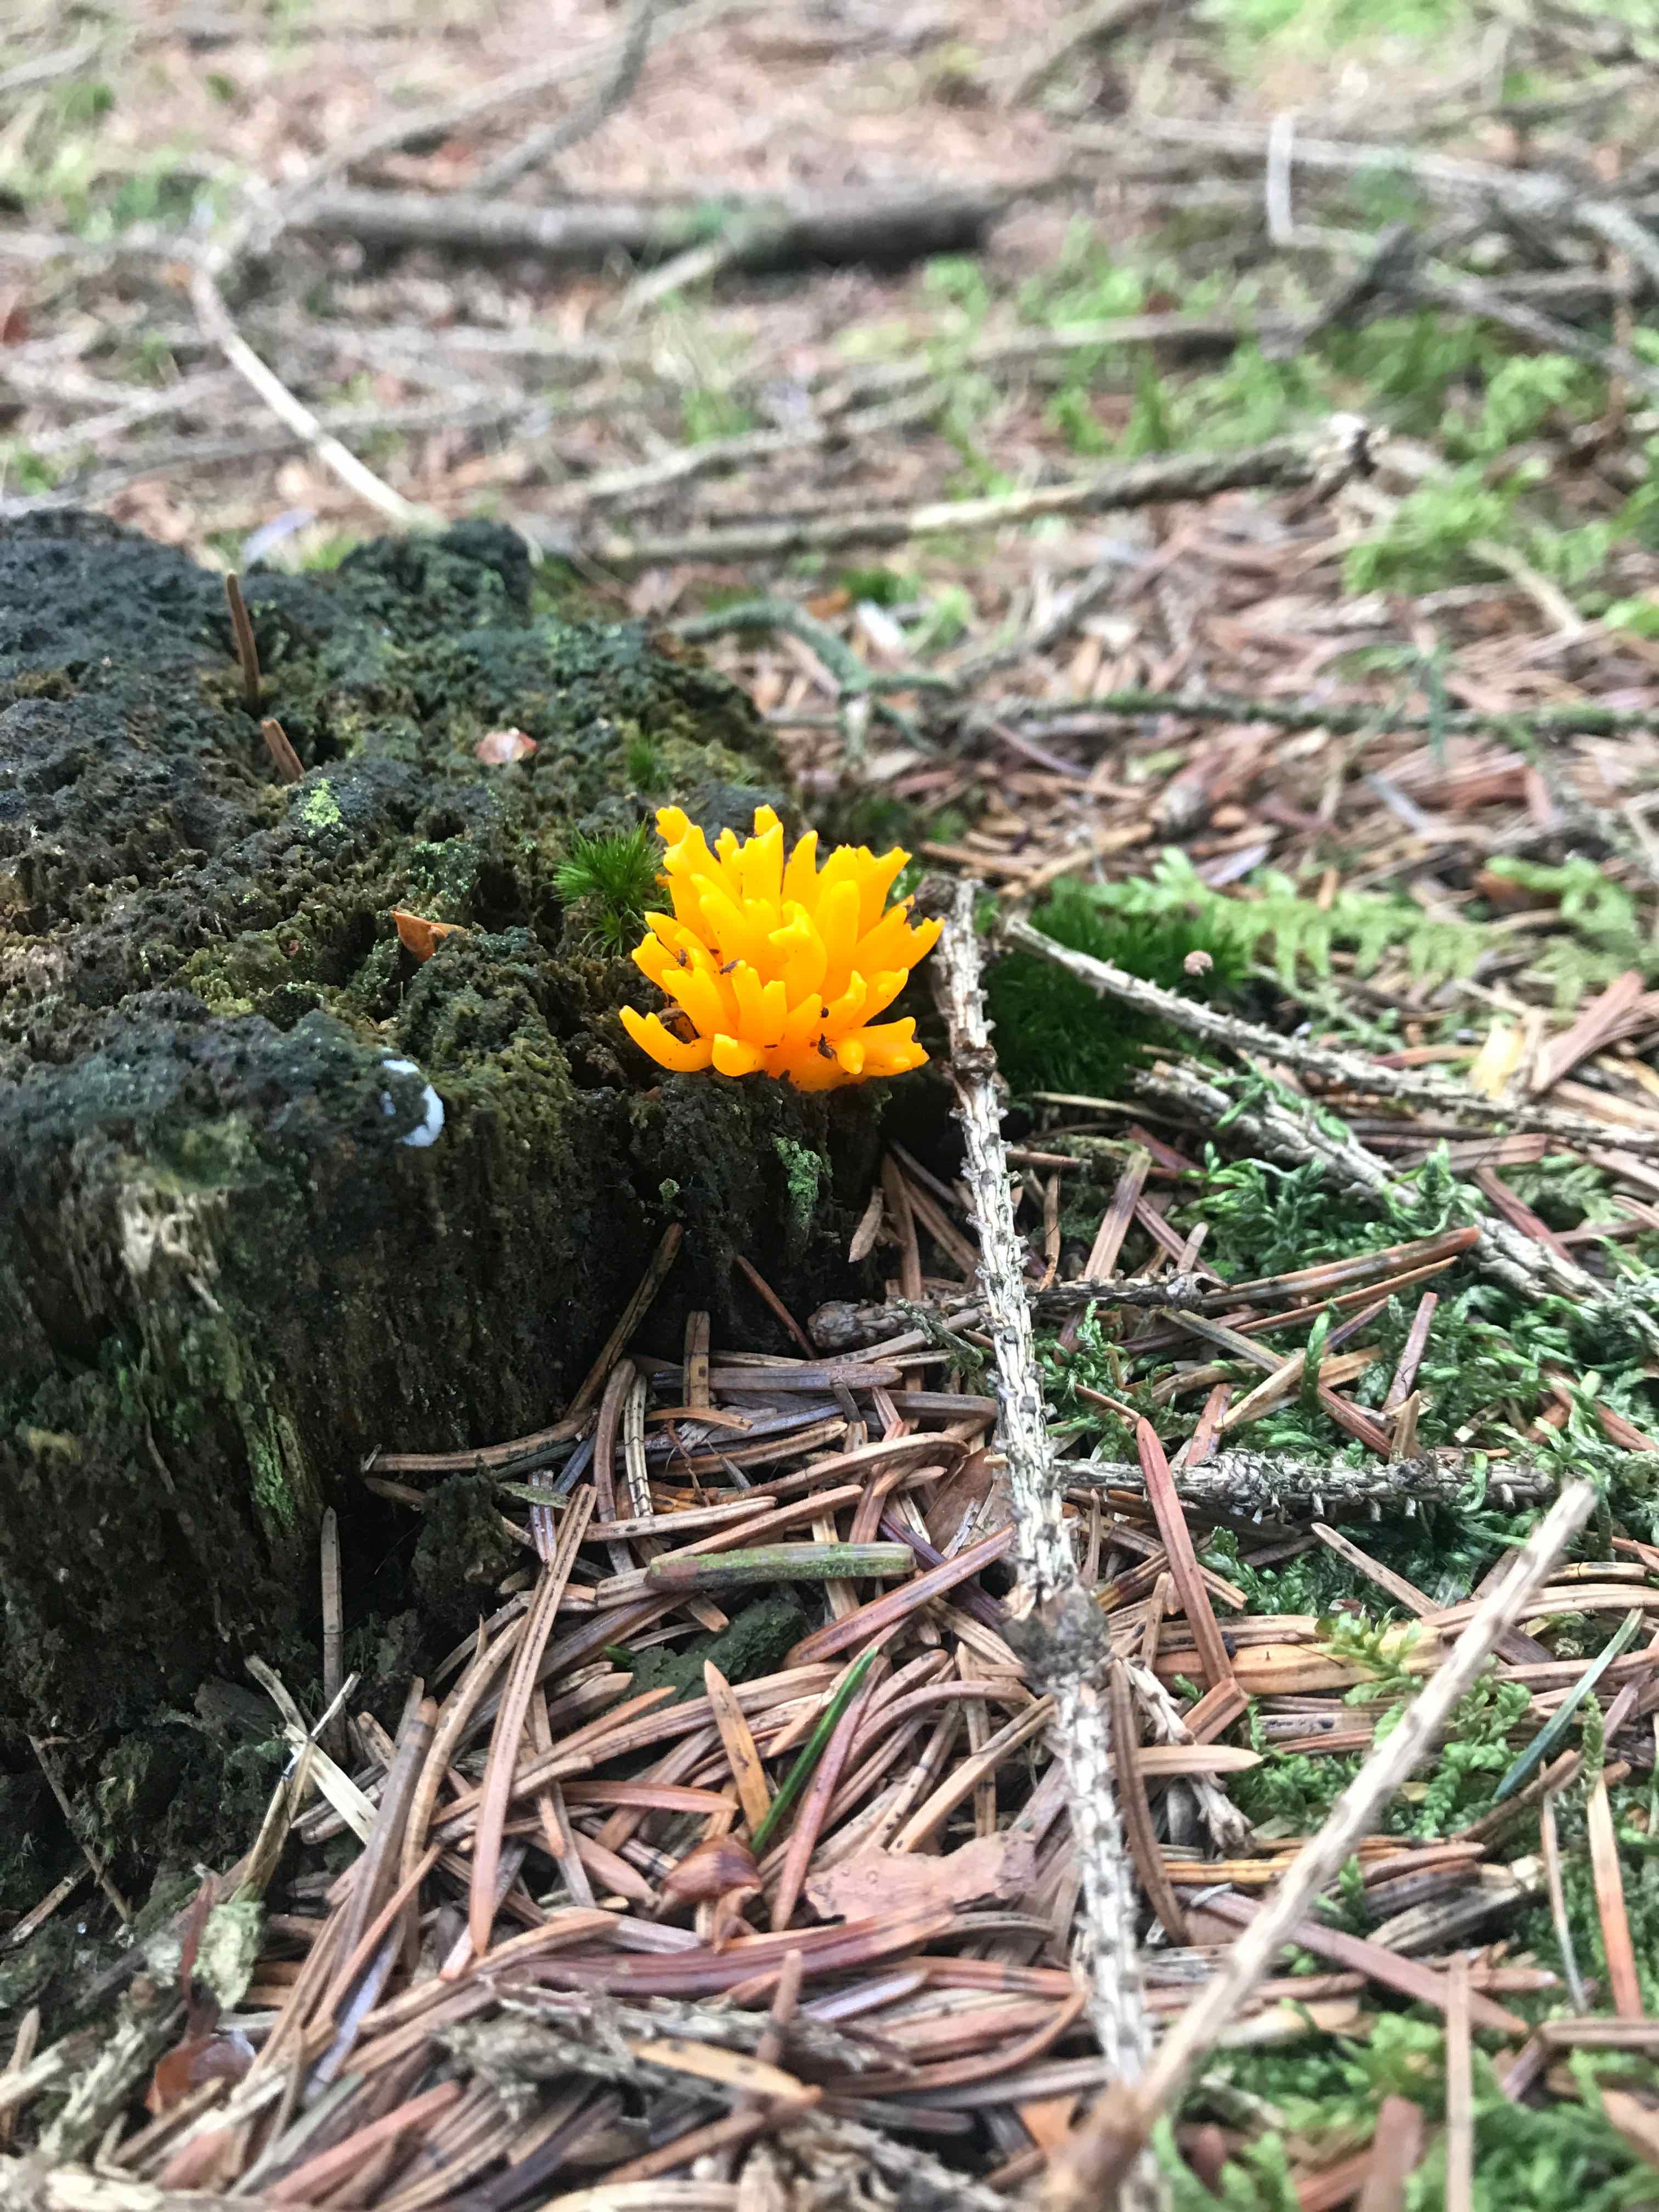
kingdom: Fungi
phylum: Basidiomycota
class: Dacrymycetes
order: Dacrymycetales
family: Dacrymycetaceae
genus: Calocera
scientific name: Calocera viscosa
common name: almindelig guldgaffel
